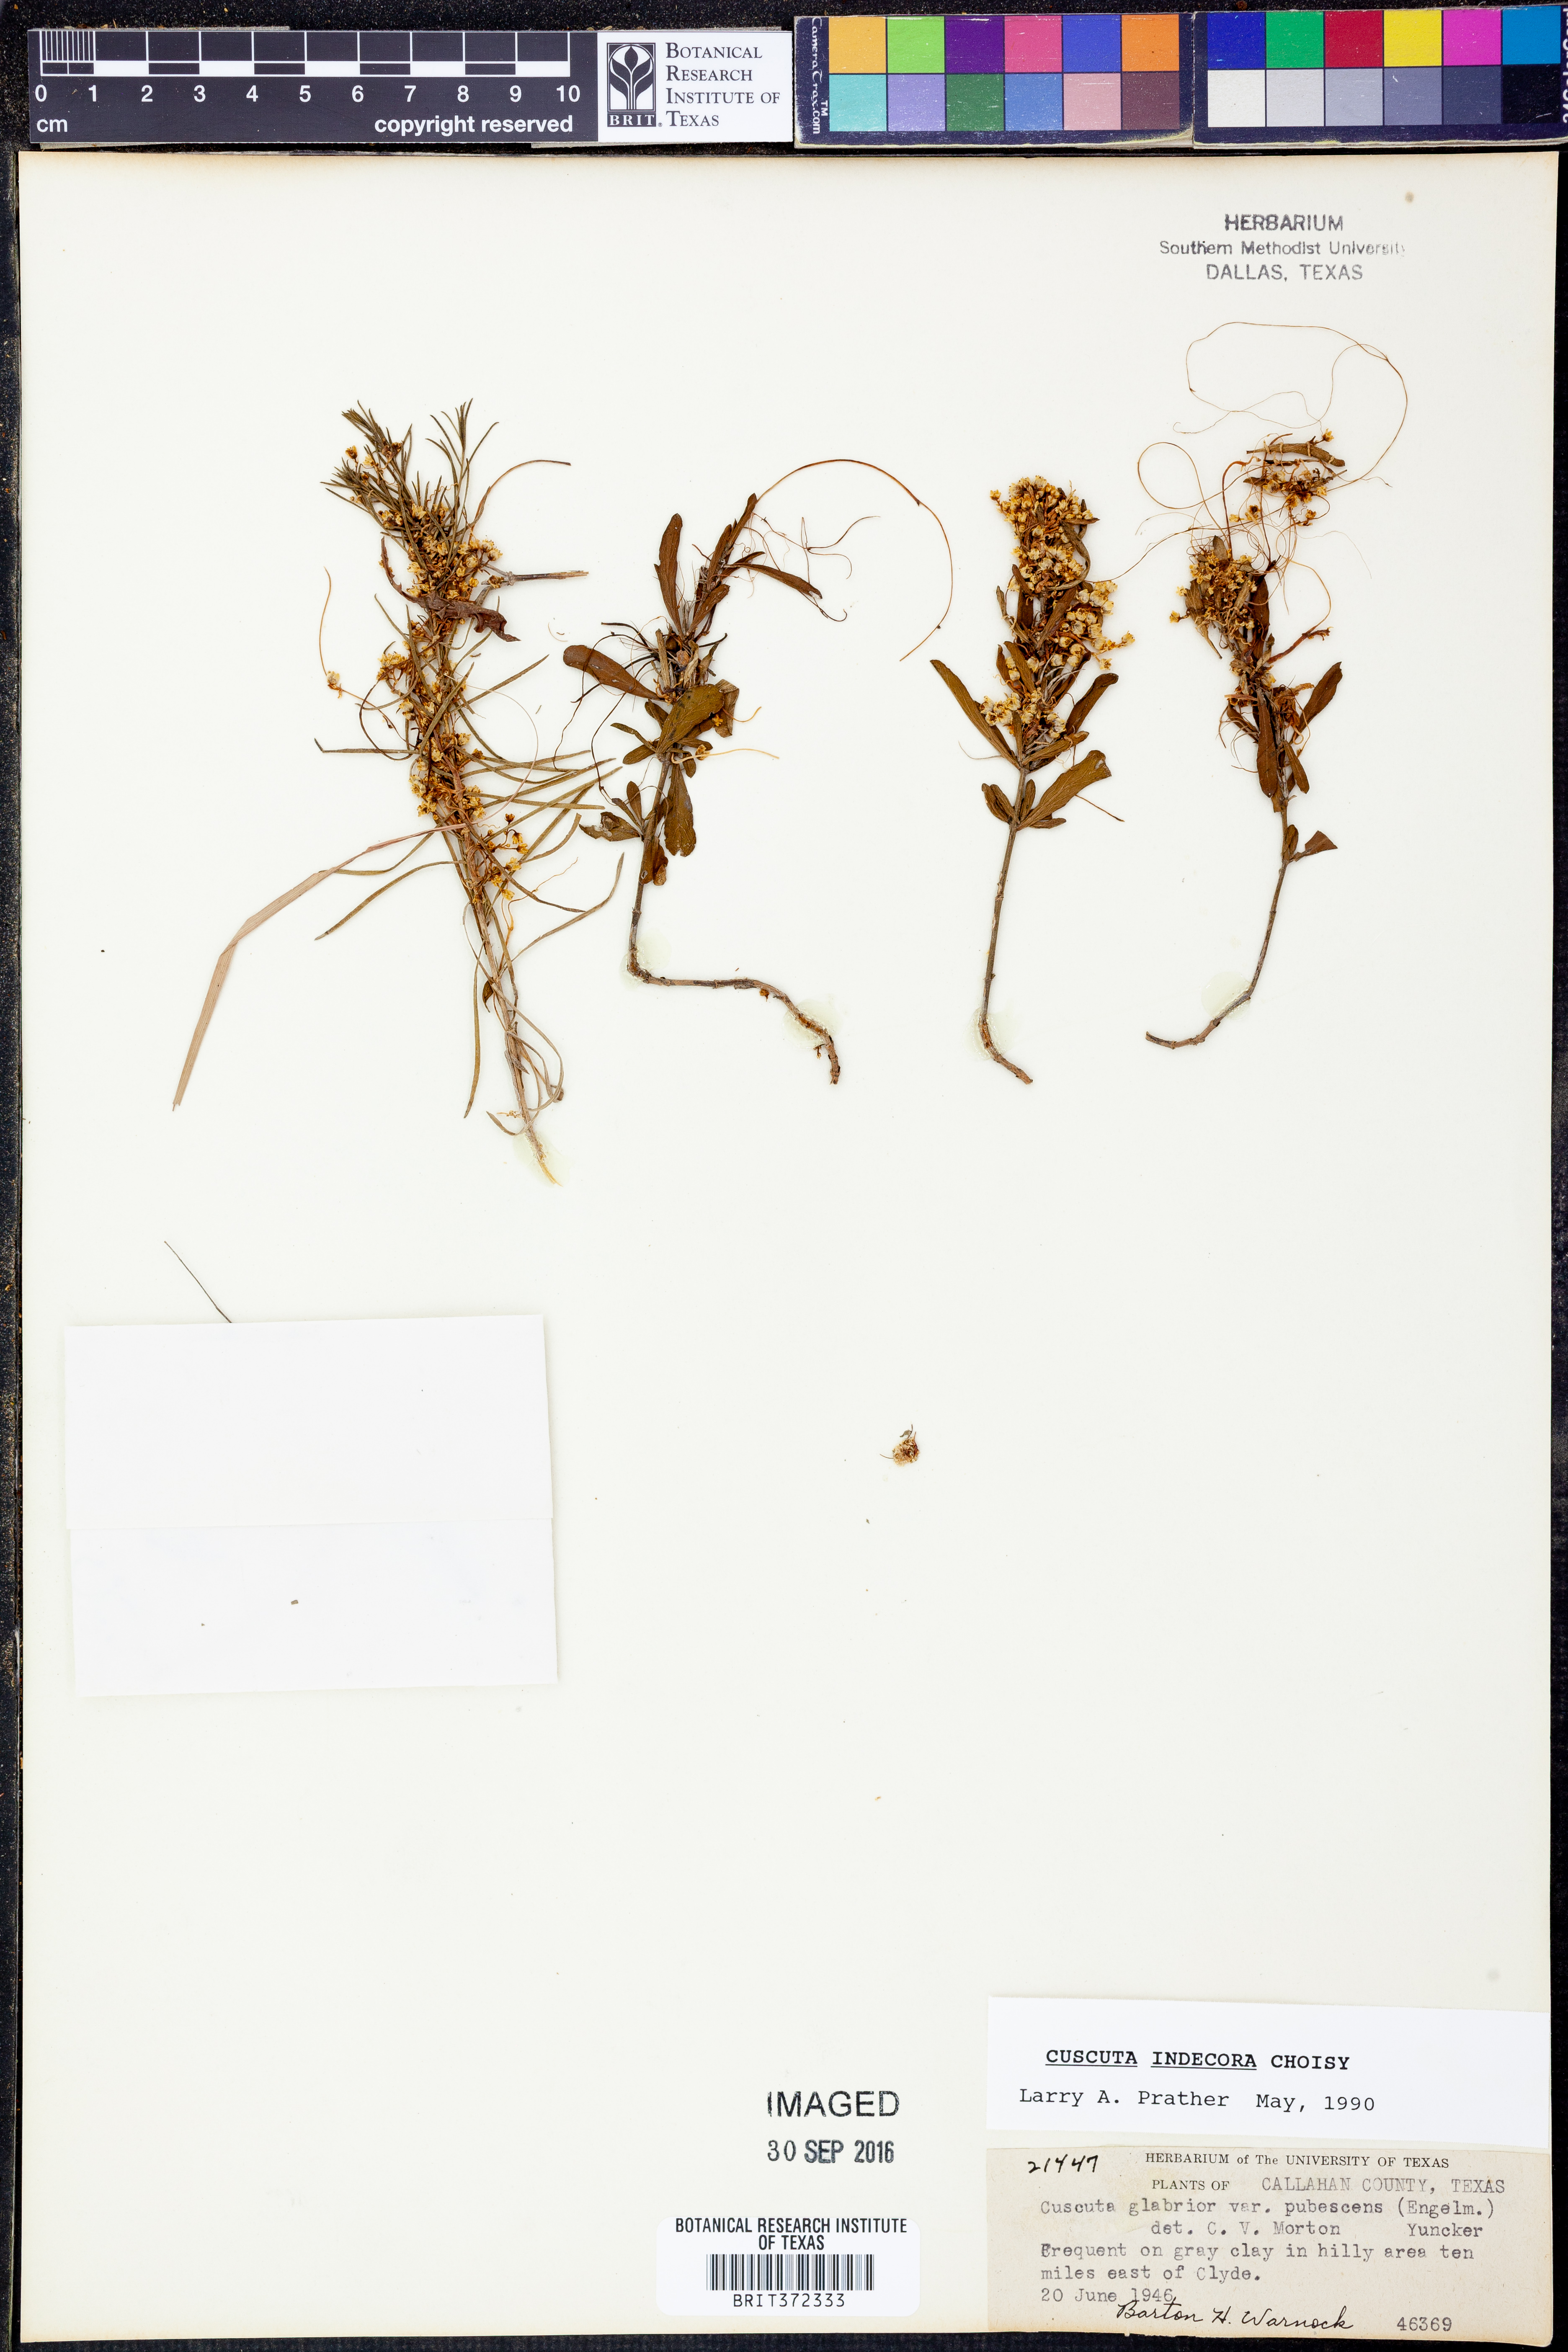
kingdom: Plantae
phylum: Tracheophyta
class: Magnoliopsida
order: Solanales
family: Convolvulaceae
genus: Cuscuta
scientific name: Cuscuta indecora
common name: Large-seed dodder
